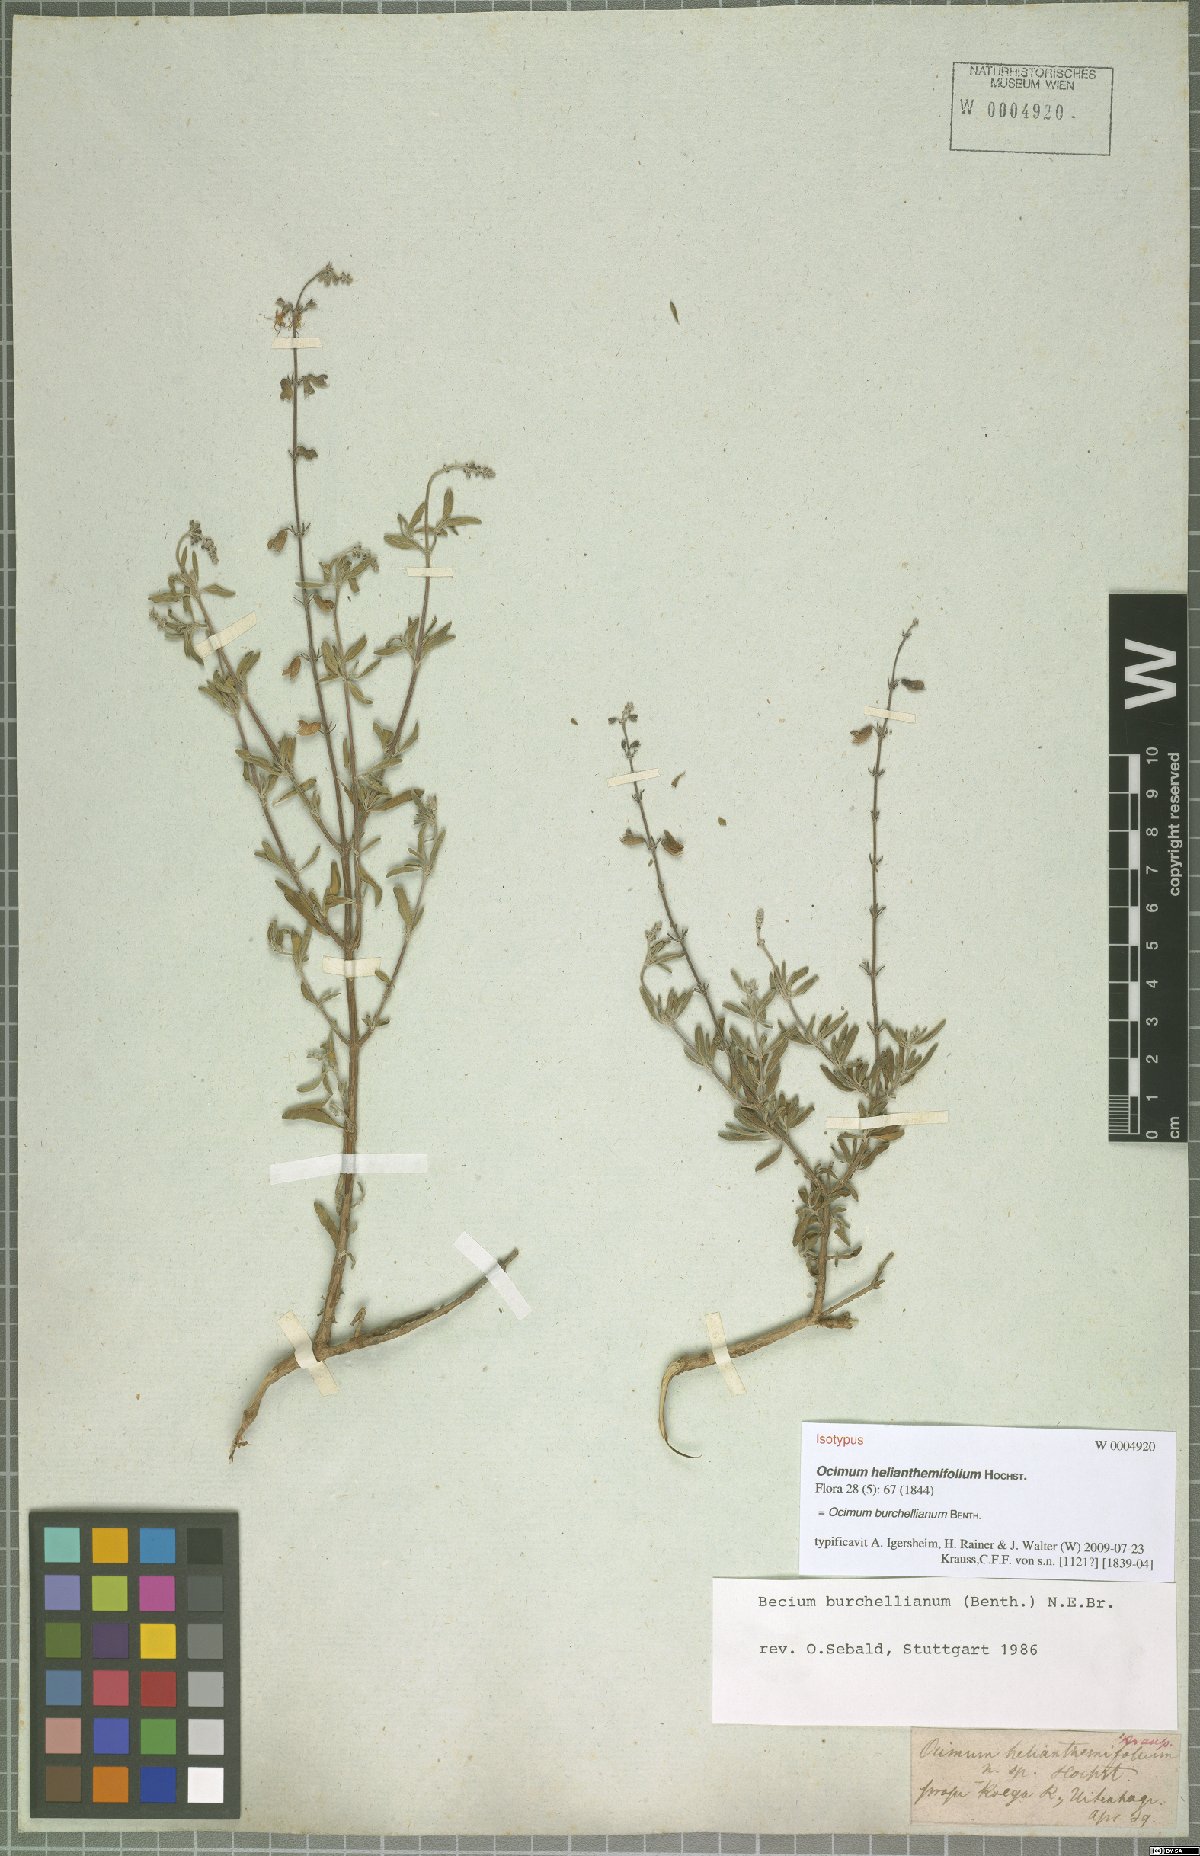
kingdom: Plantae
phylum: Tracheophyta
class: Magnoliopsida
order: Lamiales
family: Lamiaceae
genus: Ocimum
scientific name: Ocimum burchellianum
